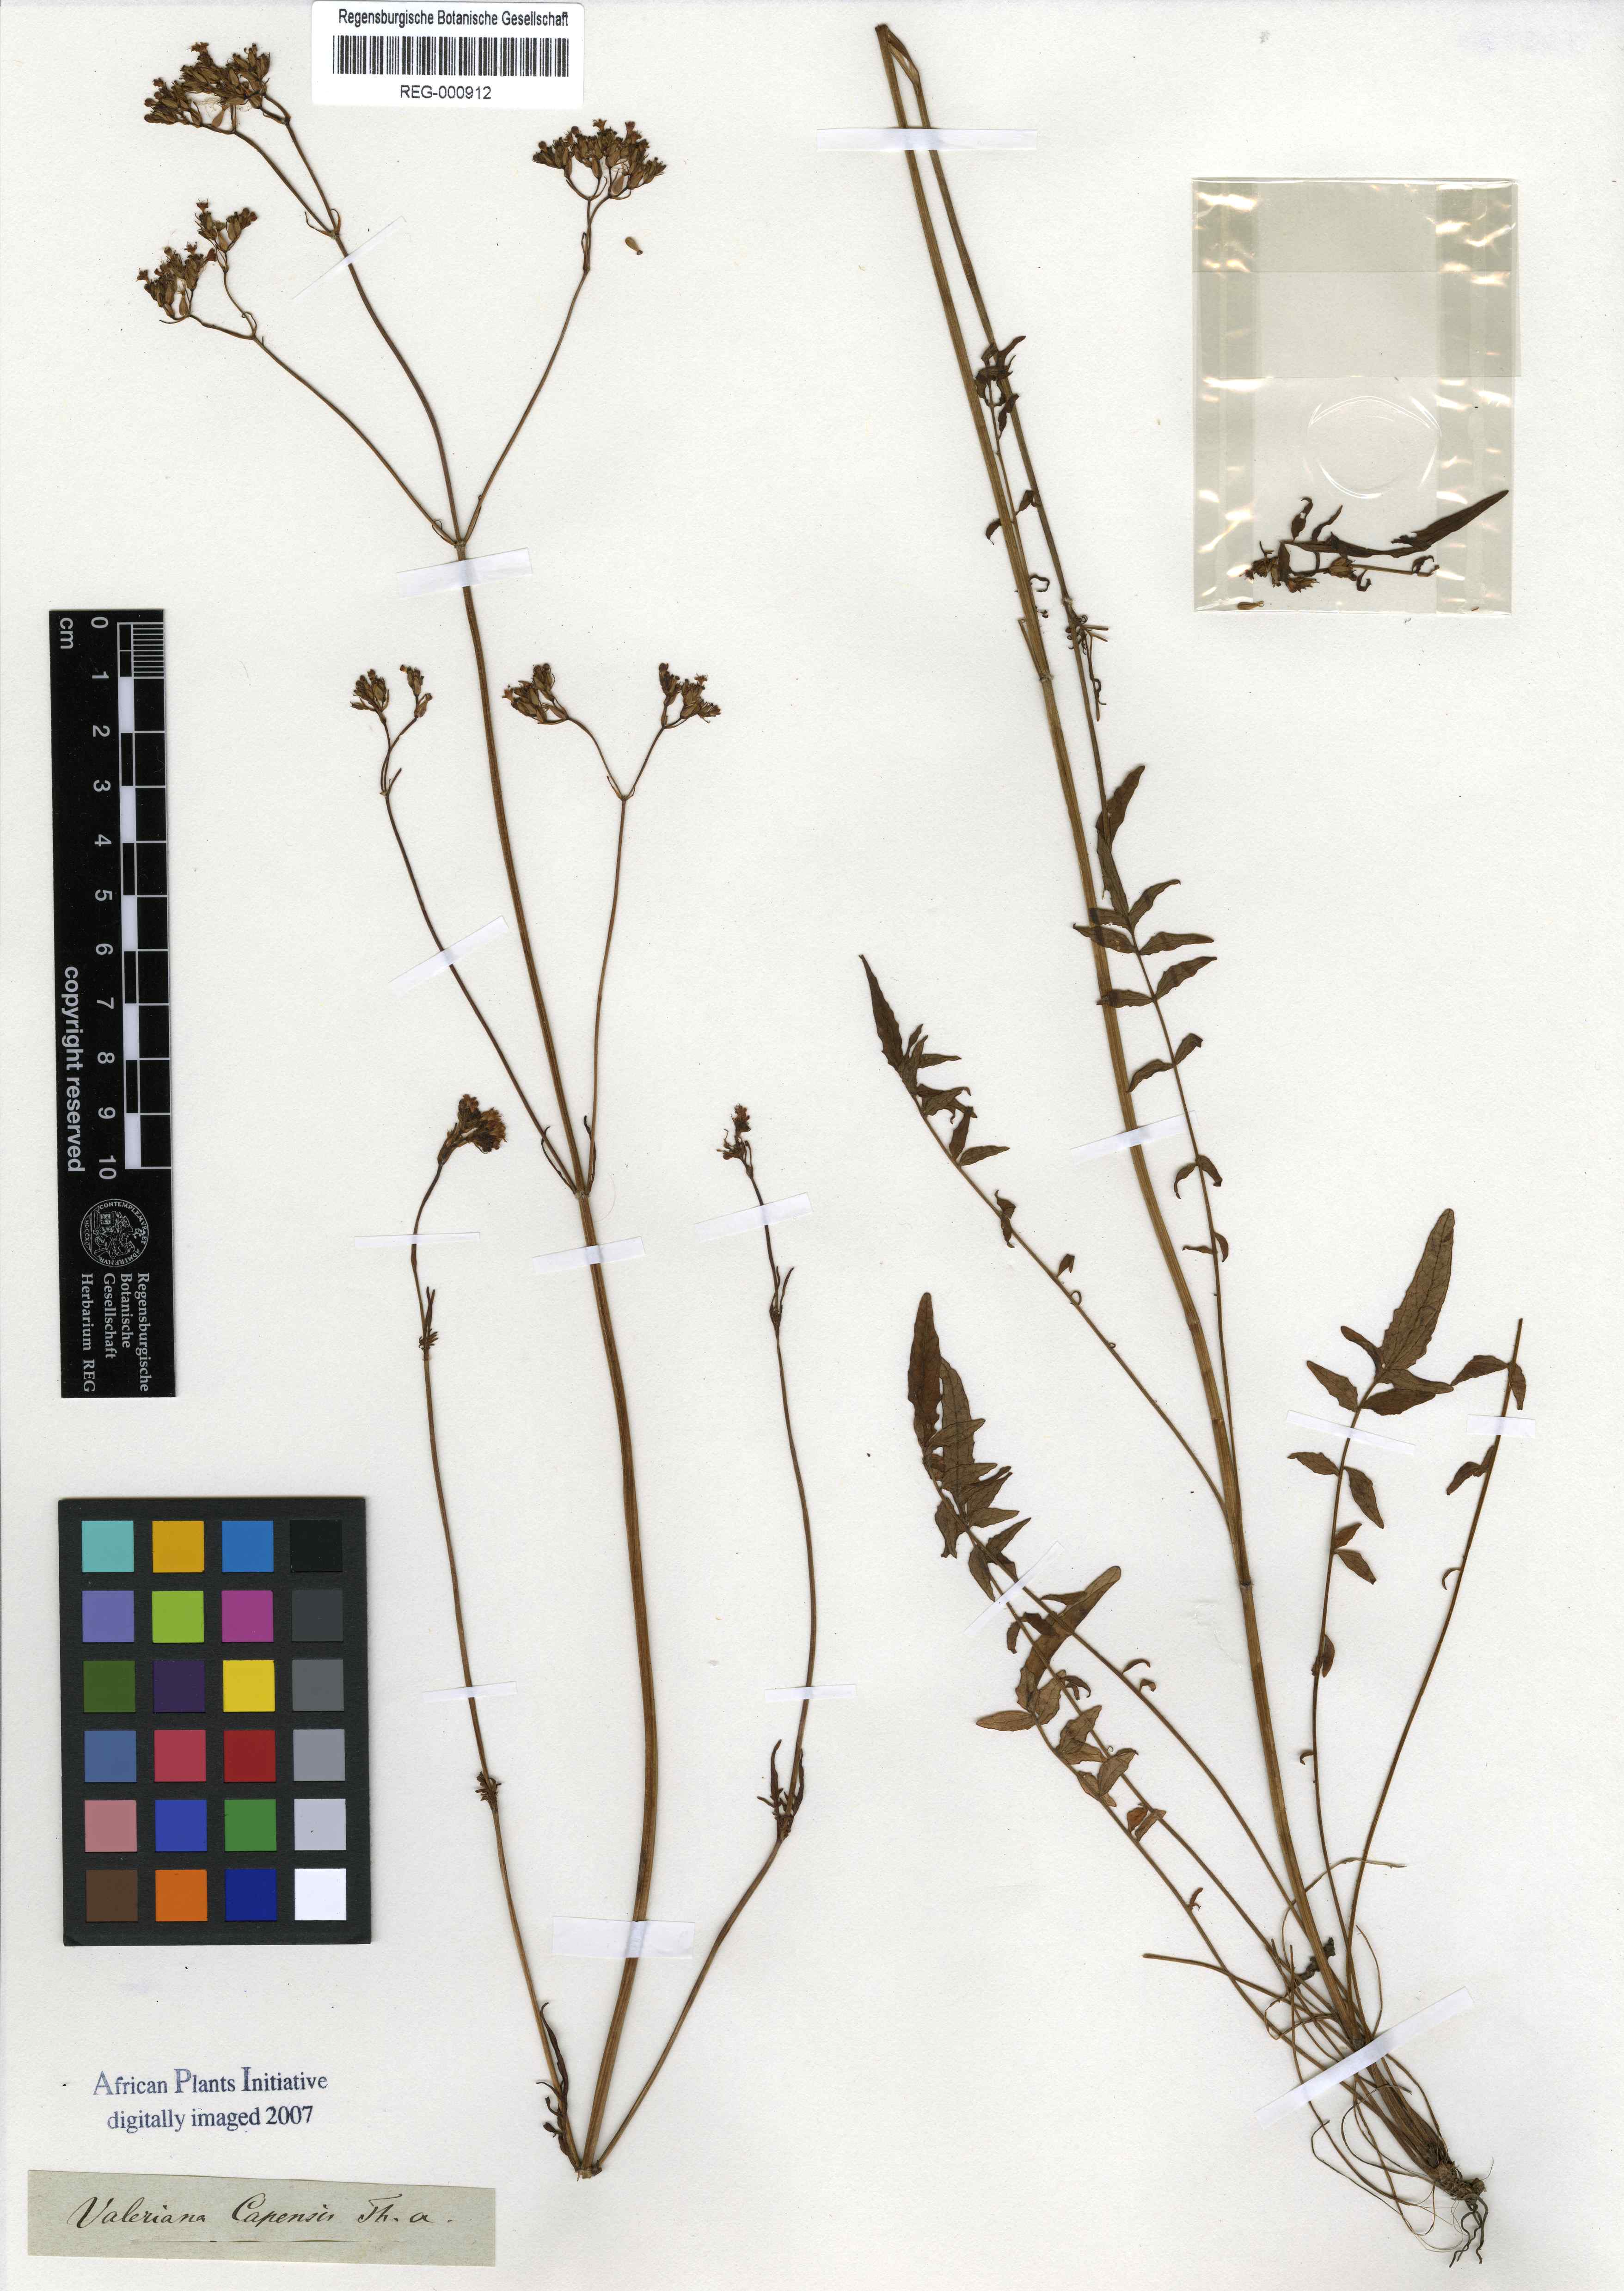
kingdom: Plantae
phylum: Tracheophyta
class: Magnoliopsida
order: Dipsacales
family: Caprifoliaceae
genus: Valeriana
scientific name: Valeriana capensis
